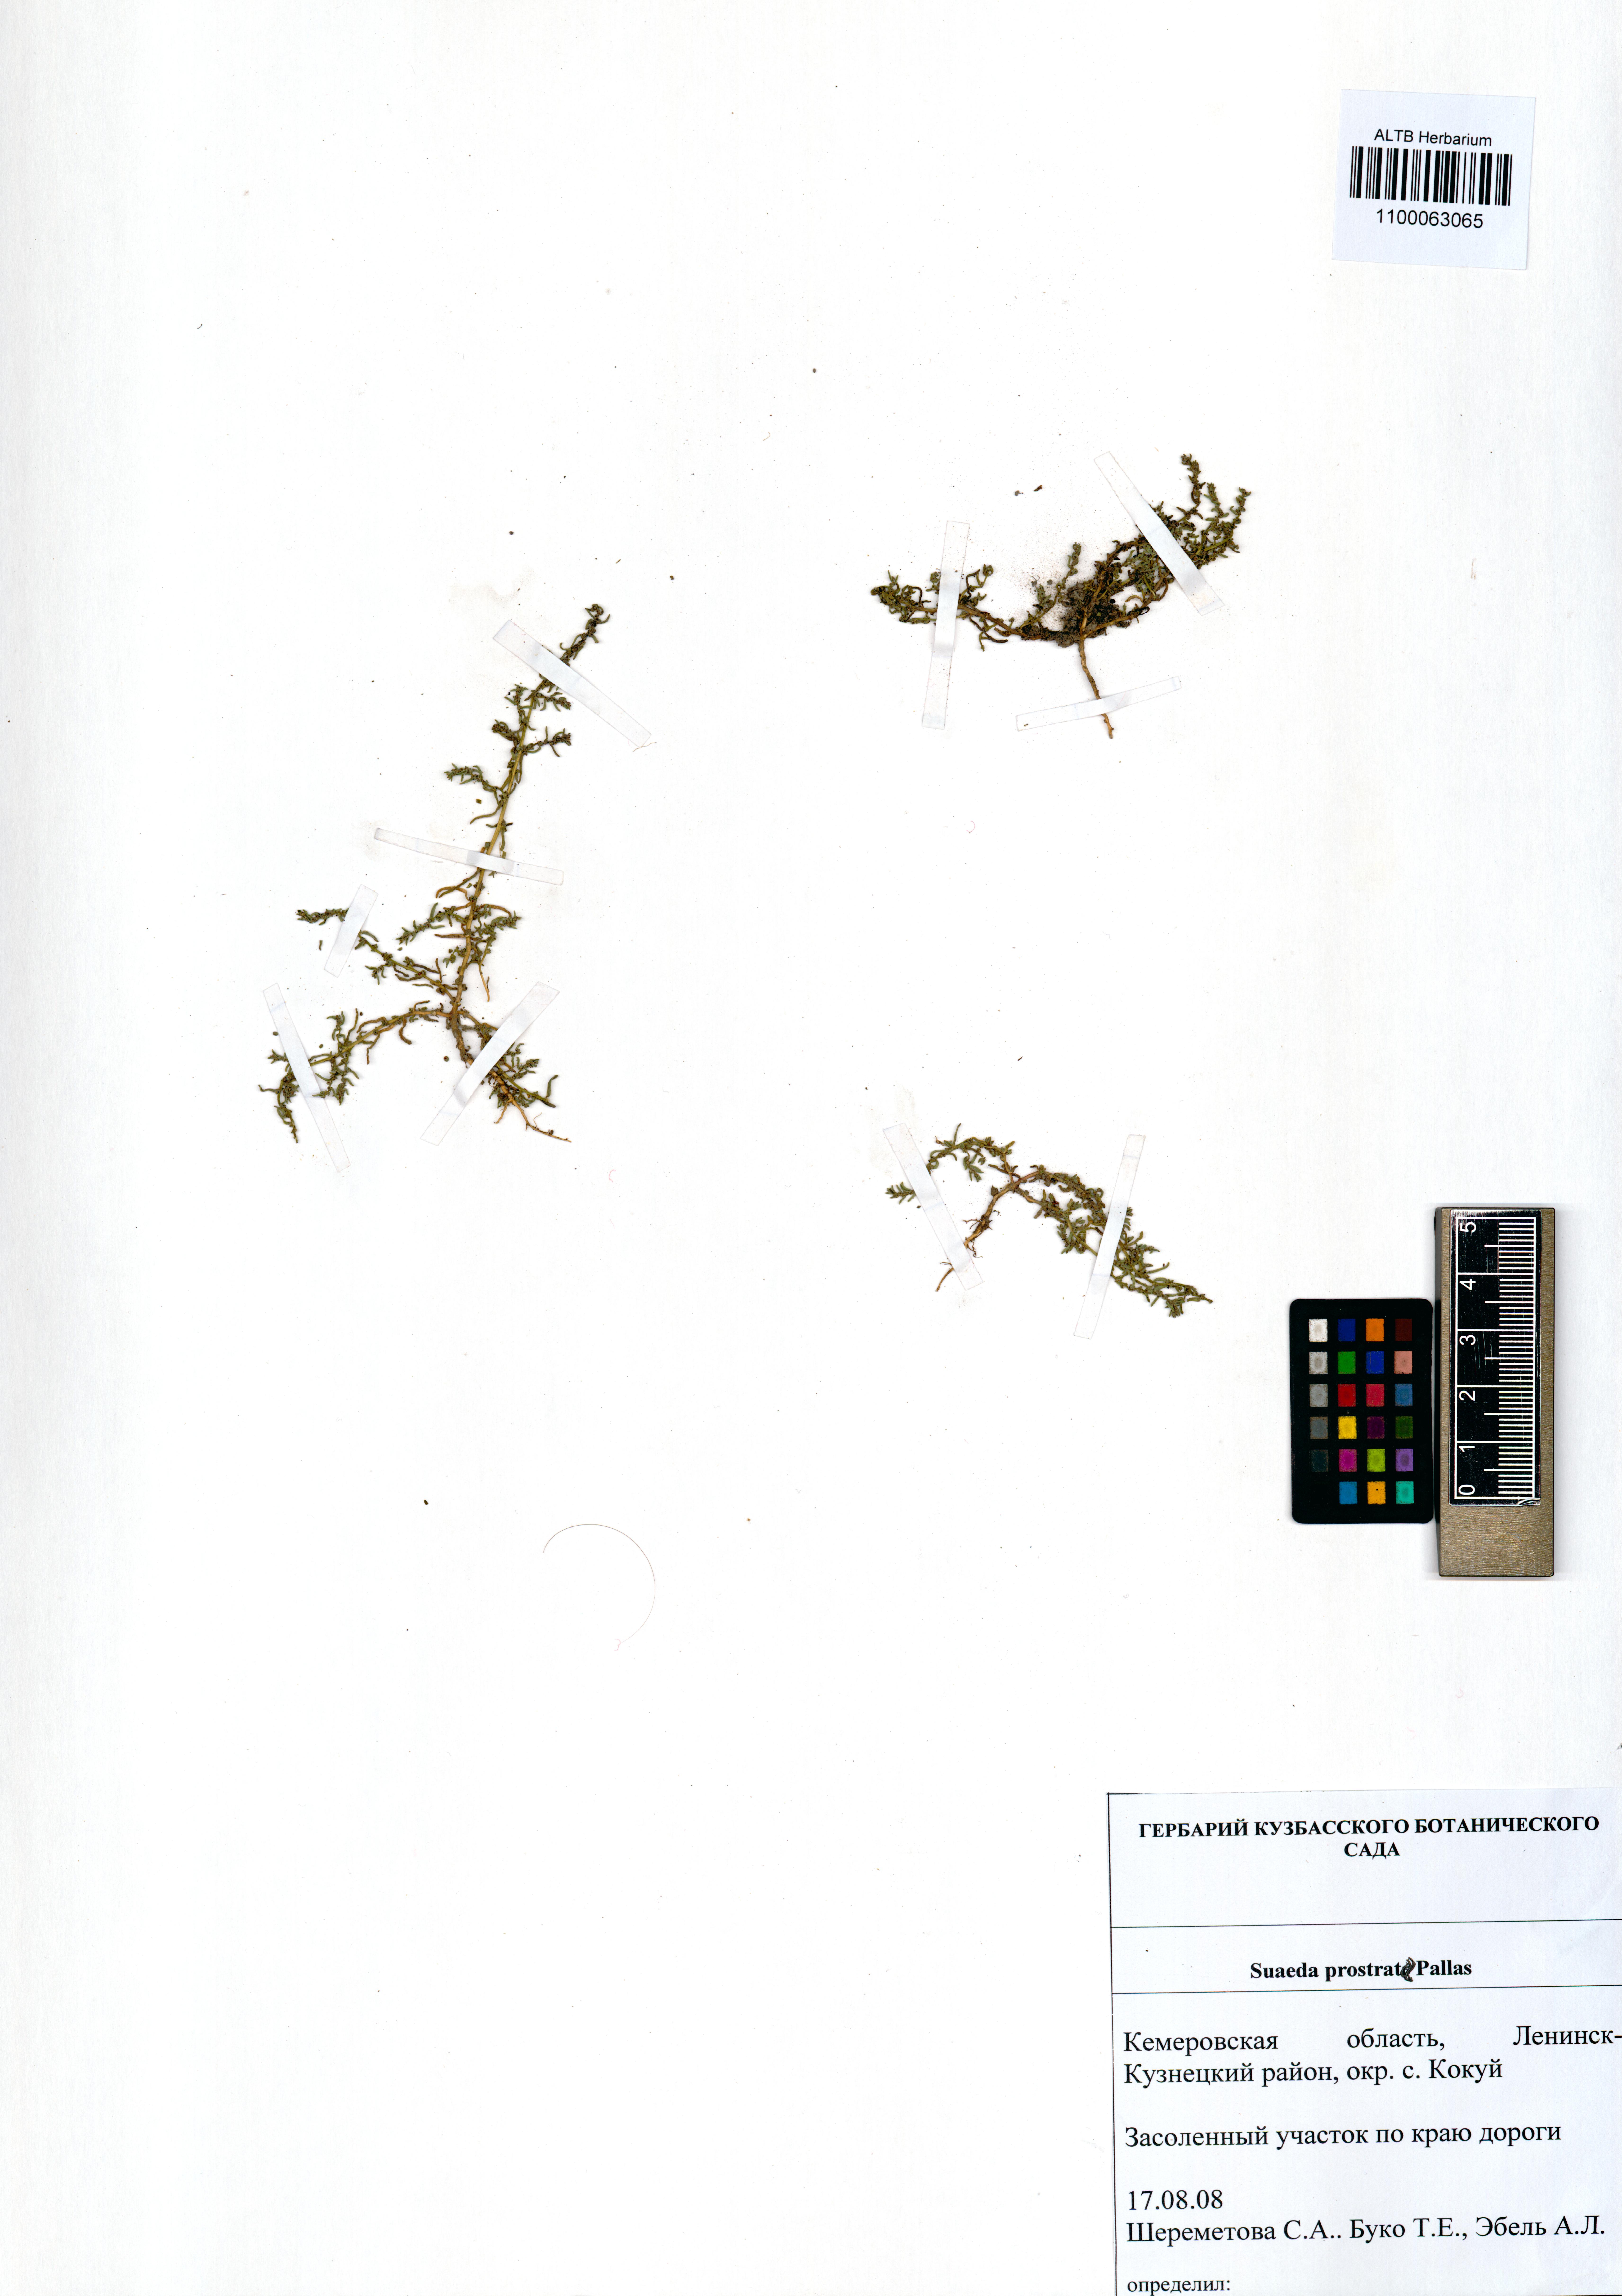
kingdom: Plantae
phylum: Tracheophyta
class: Magnoliopsida
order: Caryophyllales
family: Amaranthaceae
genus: Suaeda
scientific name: Suaeda prostrata
